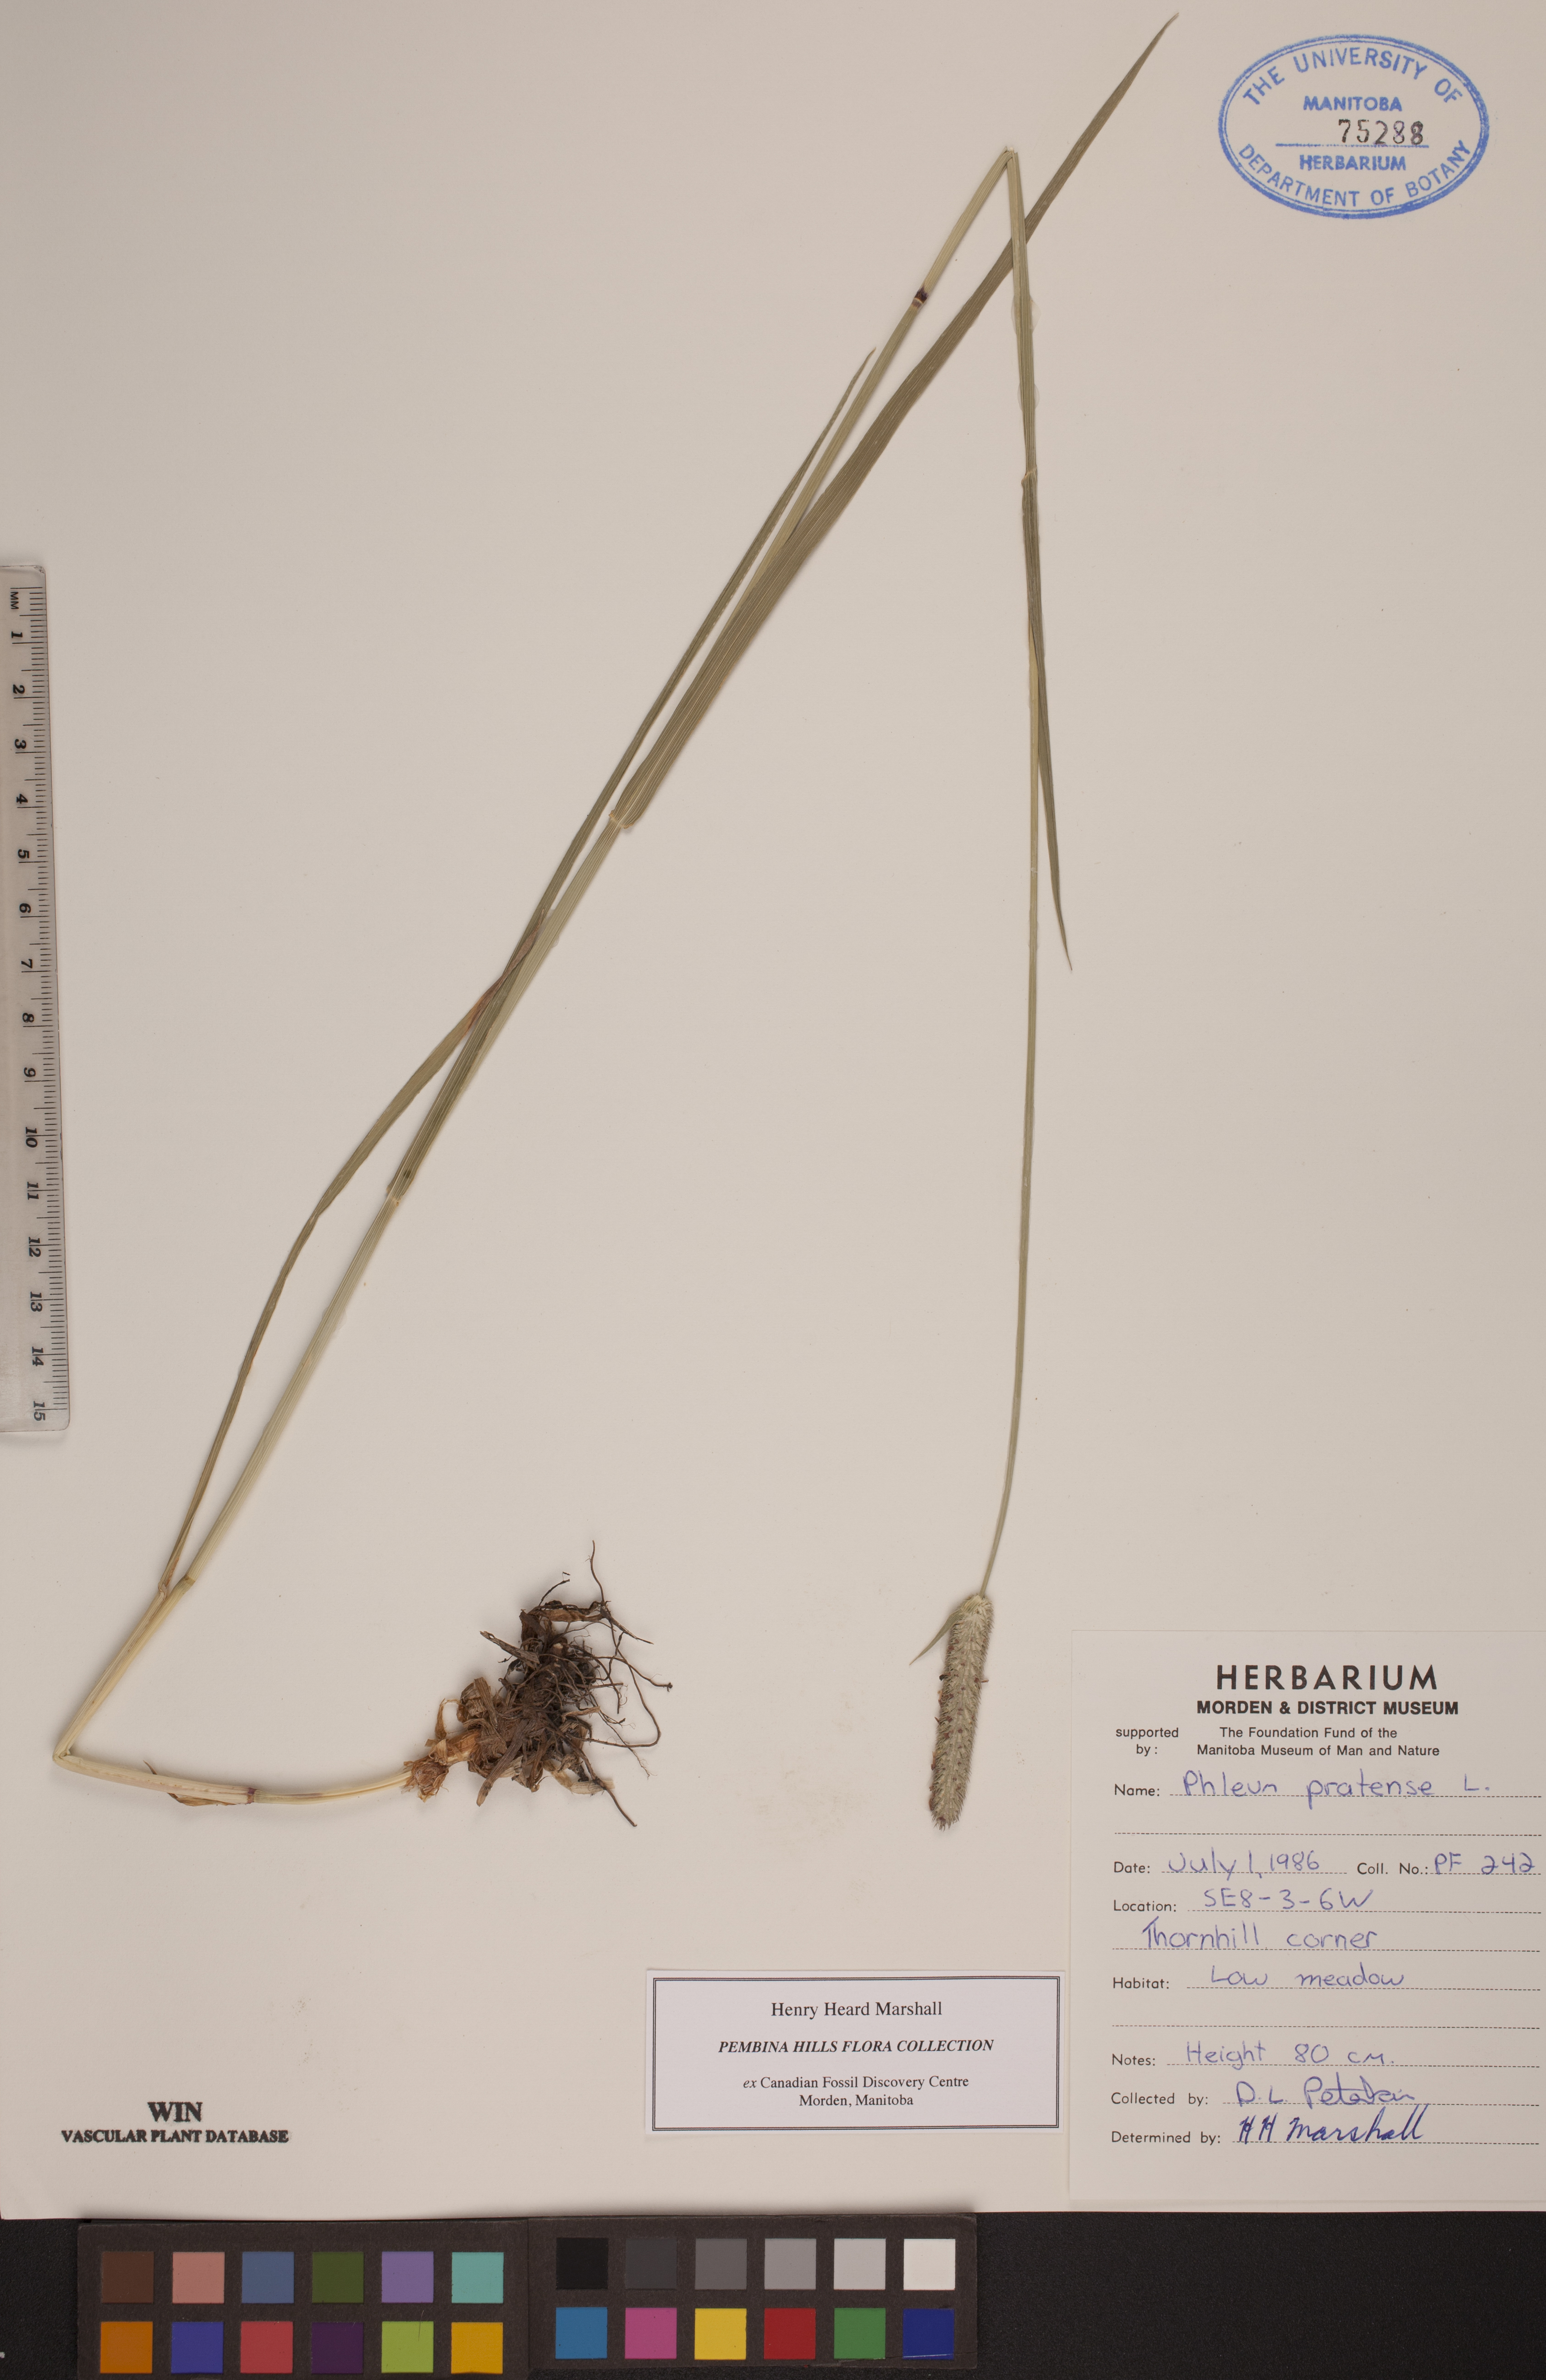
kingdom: Plantae
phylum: Tracheophyta
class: Liliopsida
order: Poales
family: Poaceae
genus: Phleum
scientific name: Phleum pratense
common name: Timothy grass
